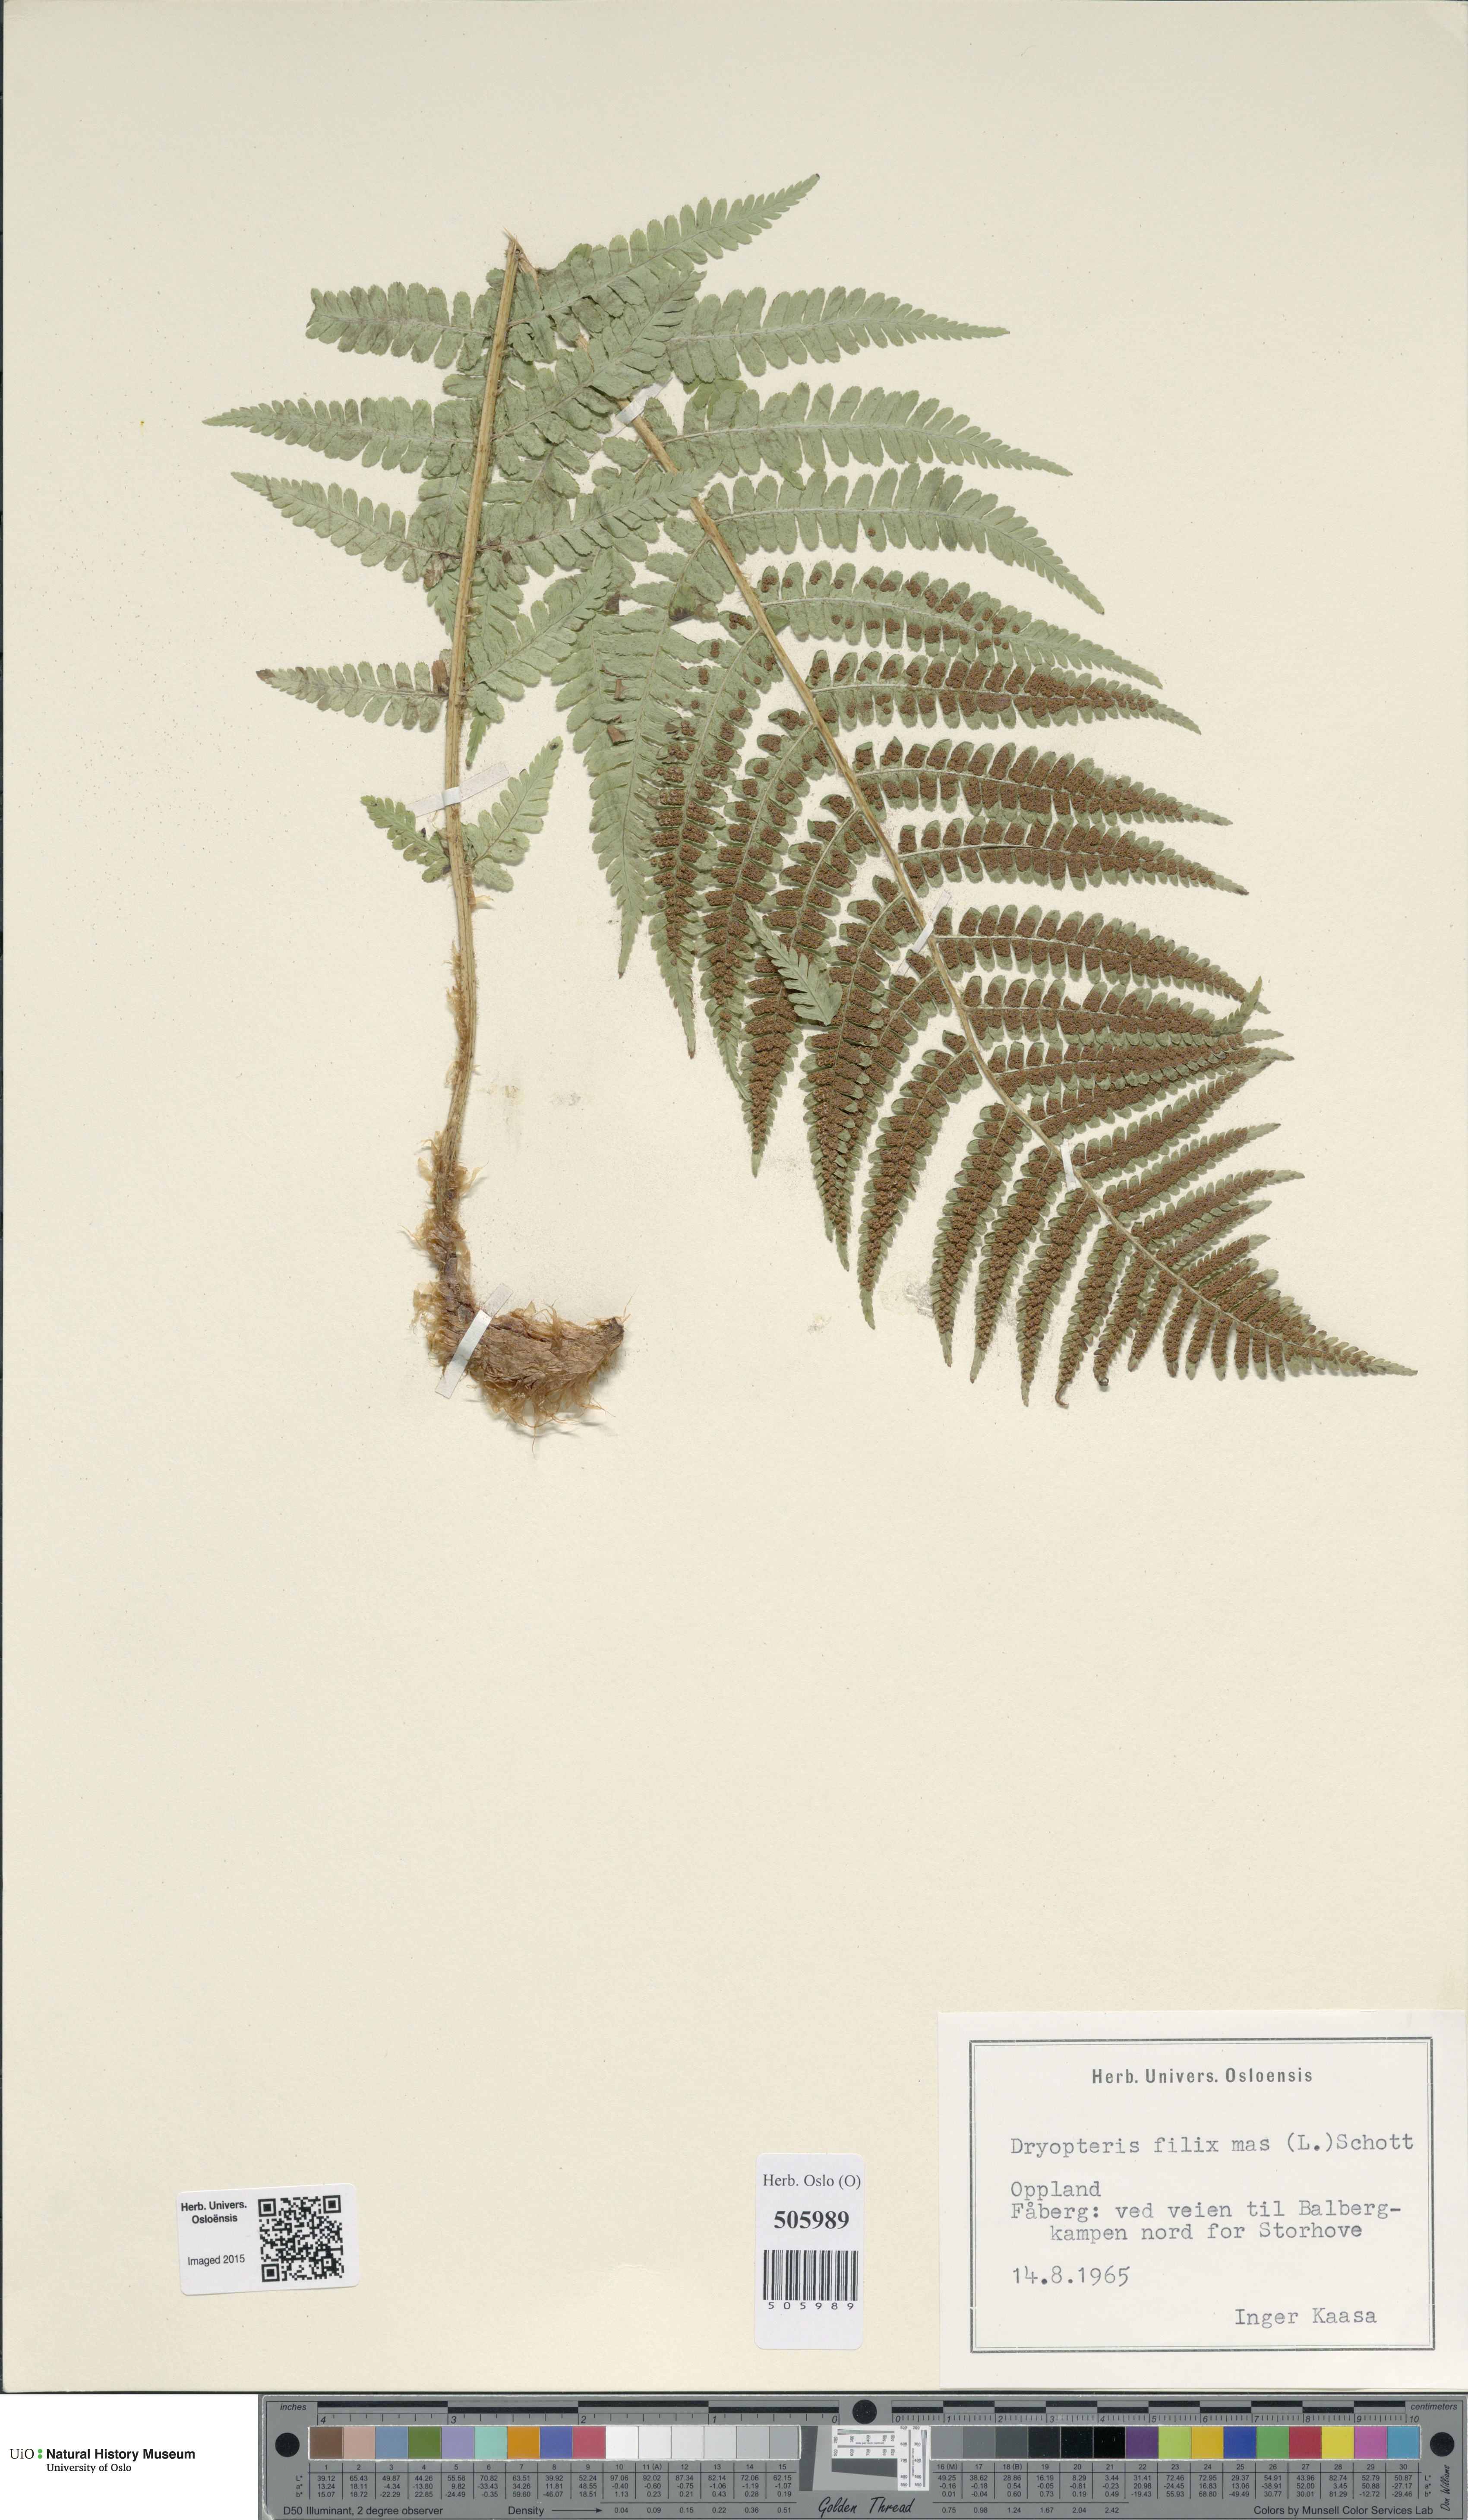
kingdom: Plantae
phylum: Tracheophyta
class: Polypodiopsida
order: Polypodiales
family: Dryopteridaceae
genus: Dryopteris
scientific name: Dryopteris filix-mas
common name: Male fern
